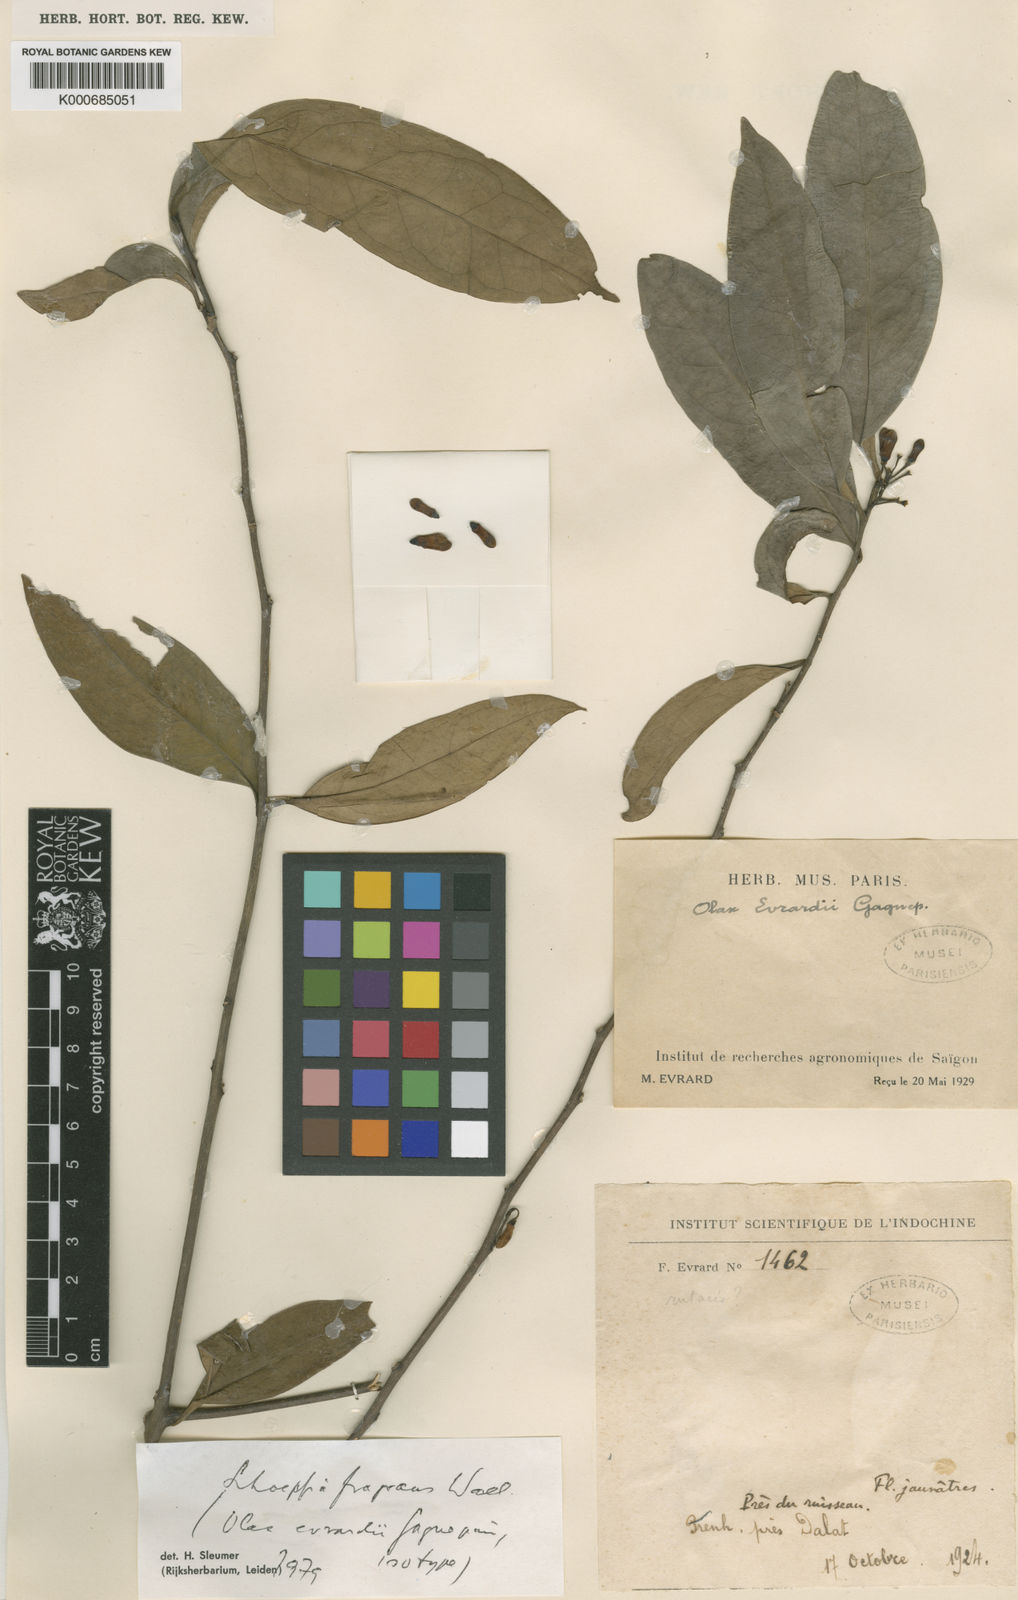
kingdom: Plantae
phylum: Tracheophyta
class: Magnoliopsida
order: Santalales
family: Schoepfiaceae
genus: Schoepfia
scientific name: Schoepfia fragrans
